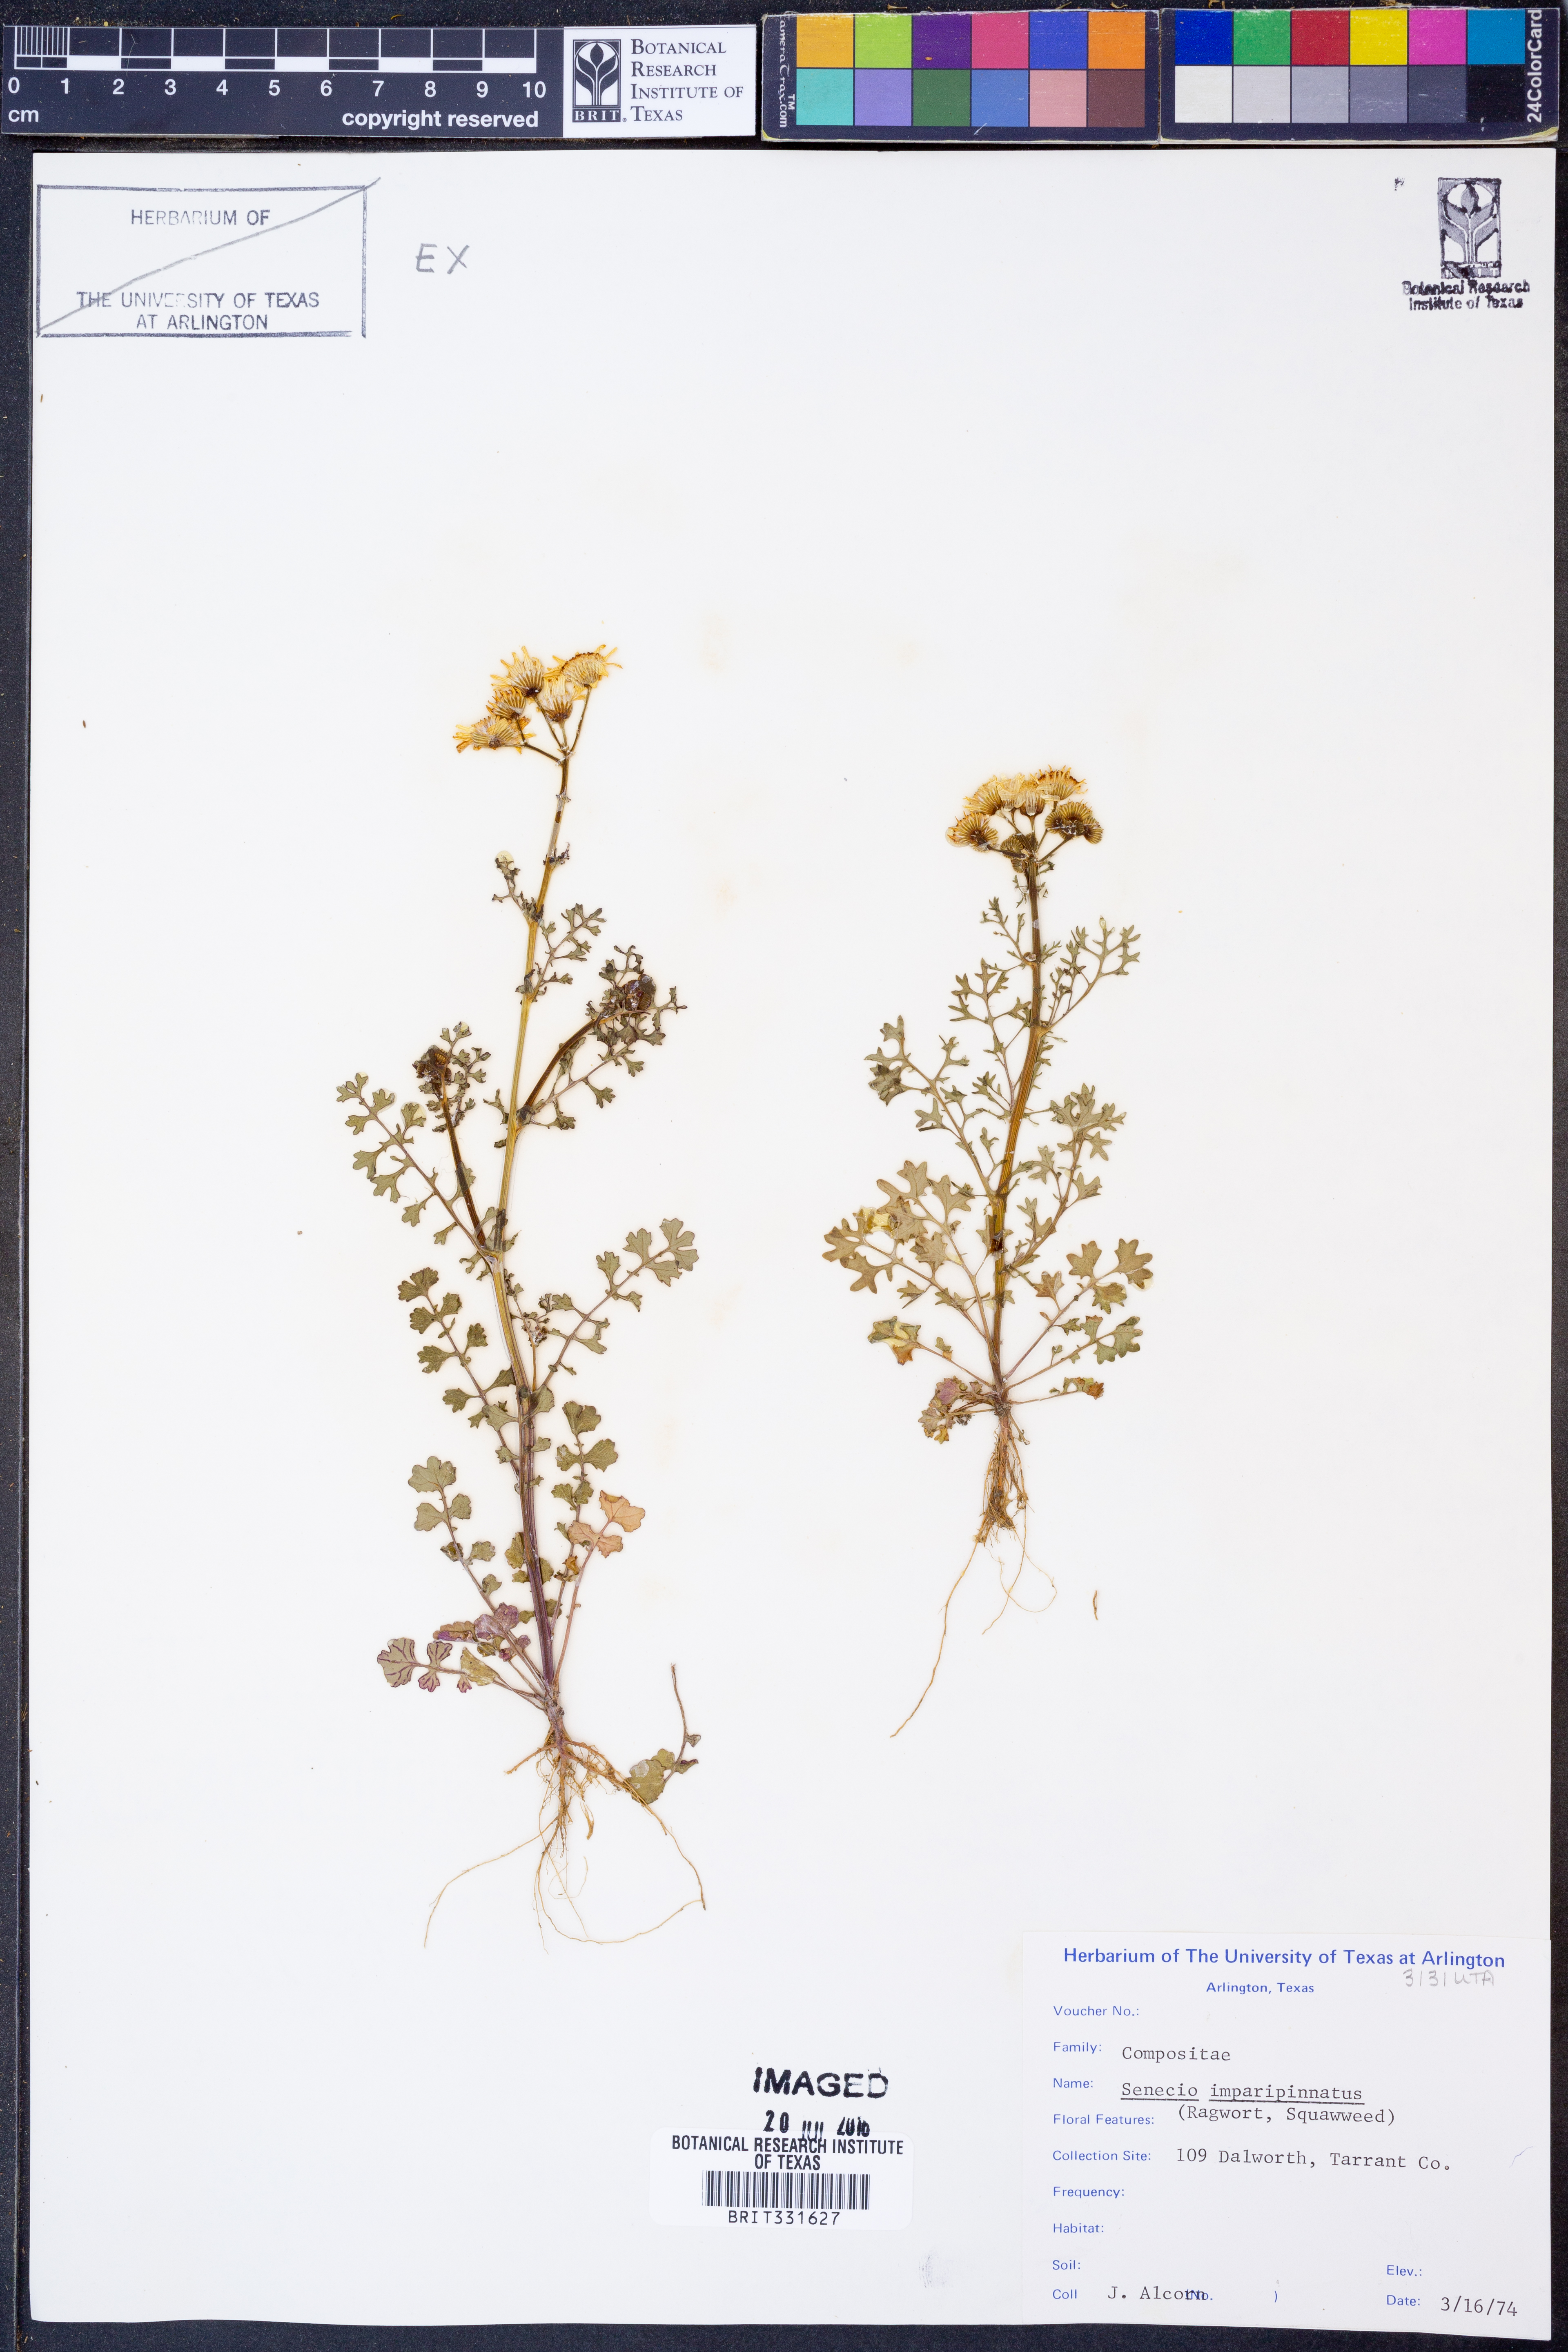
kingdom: Plantae
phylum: Tracheophyta
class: Magnoliopsida
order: Asterales
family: Asteraceae
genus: Packera
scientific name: Packera tampicana
